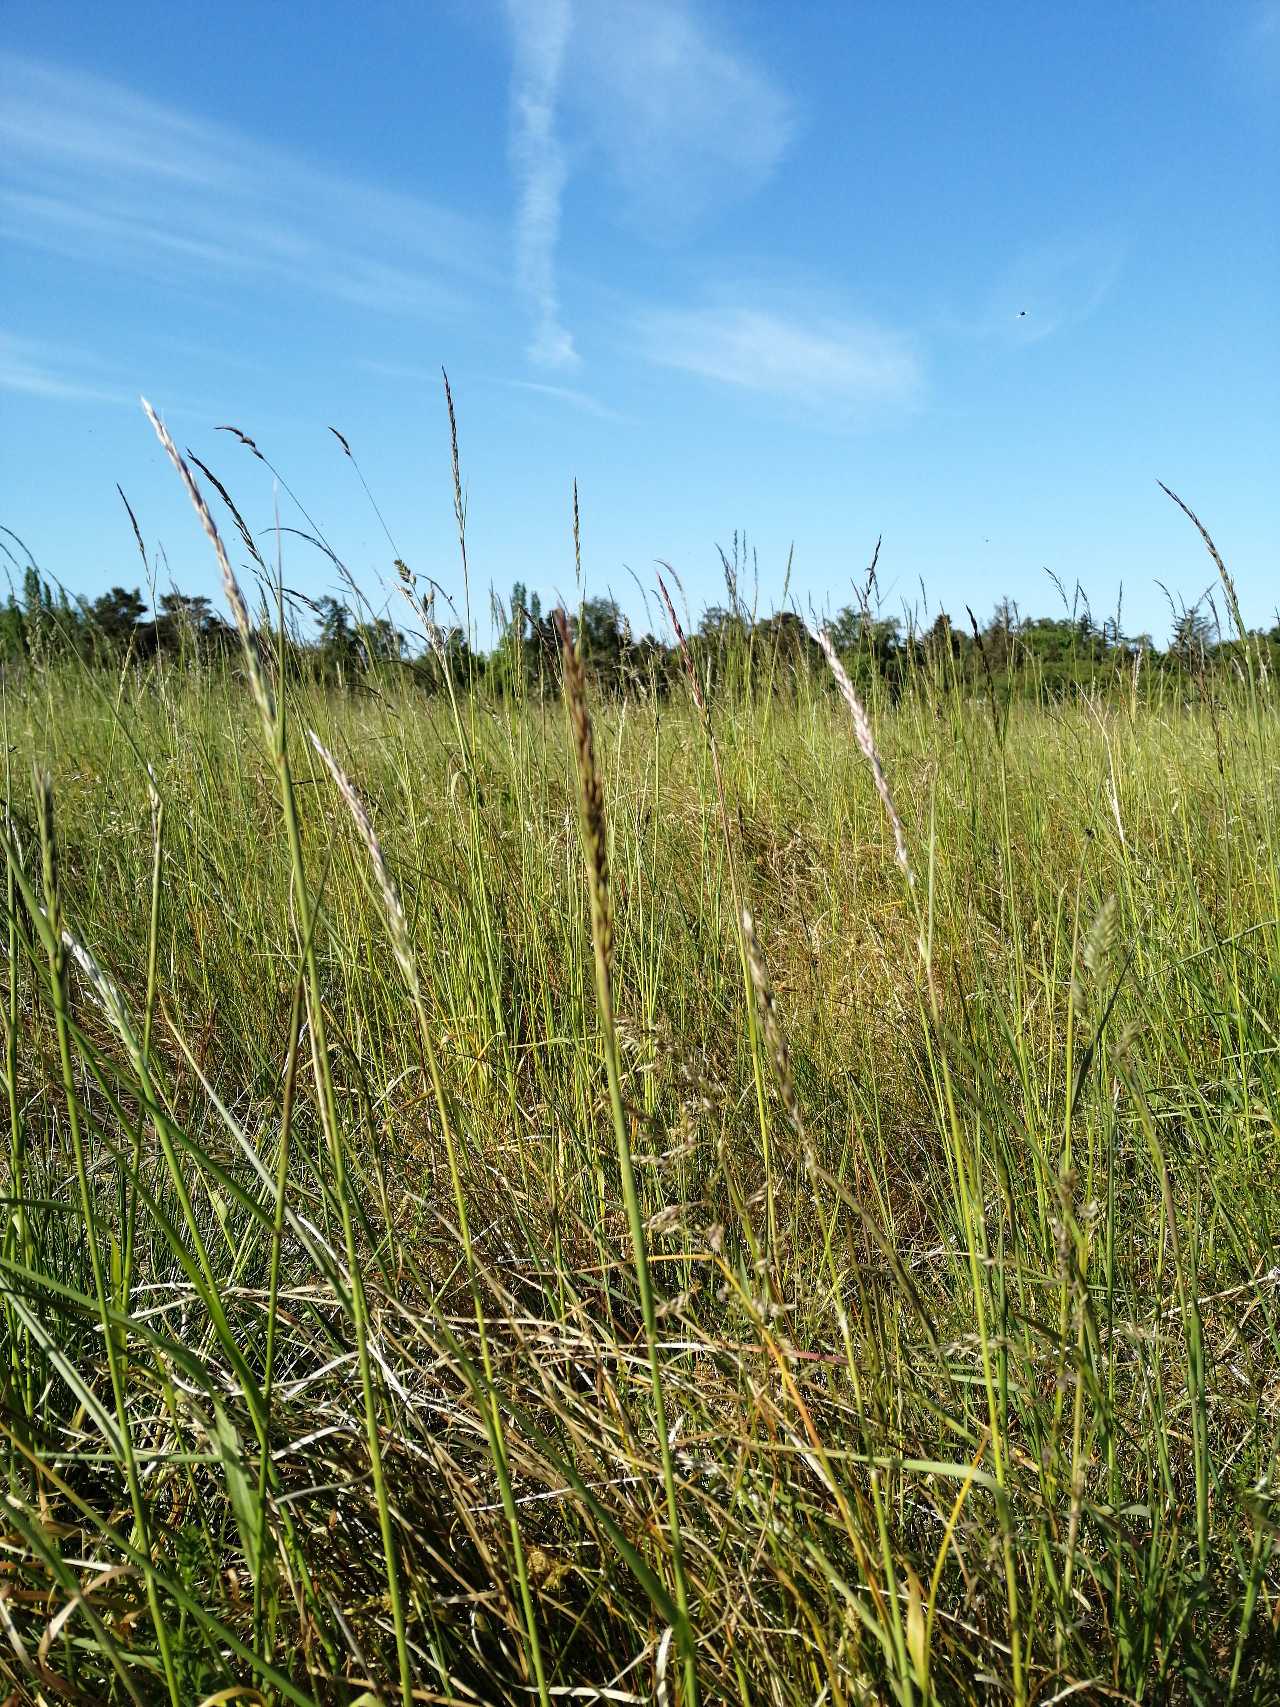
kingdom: Plantae
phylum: Tracheophyta
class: Liliopsida
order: Poales
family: Poaceae
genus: Arrhenatherum
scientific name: Arrhenatherum elatius
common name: Draphavre
